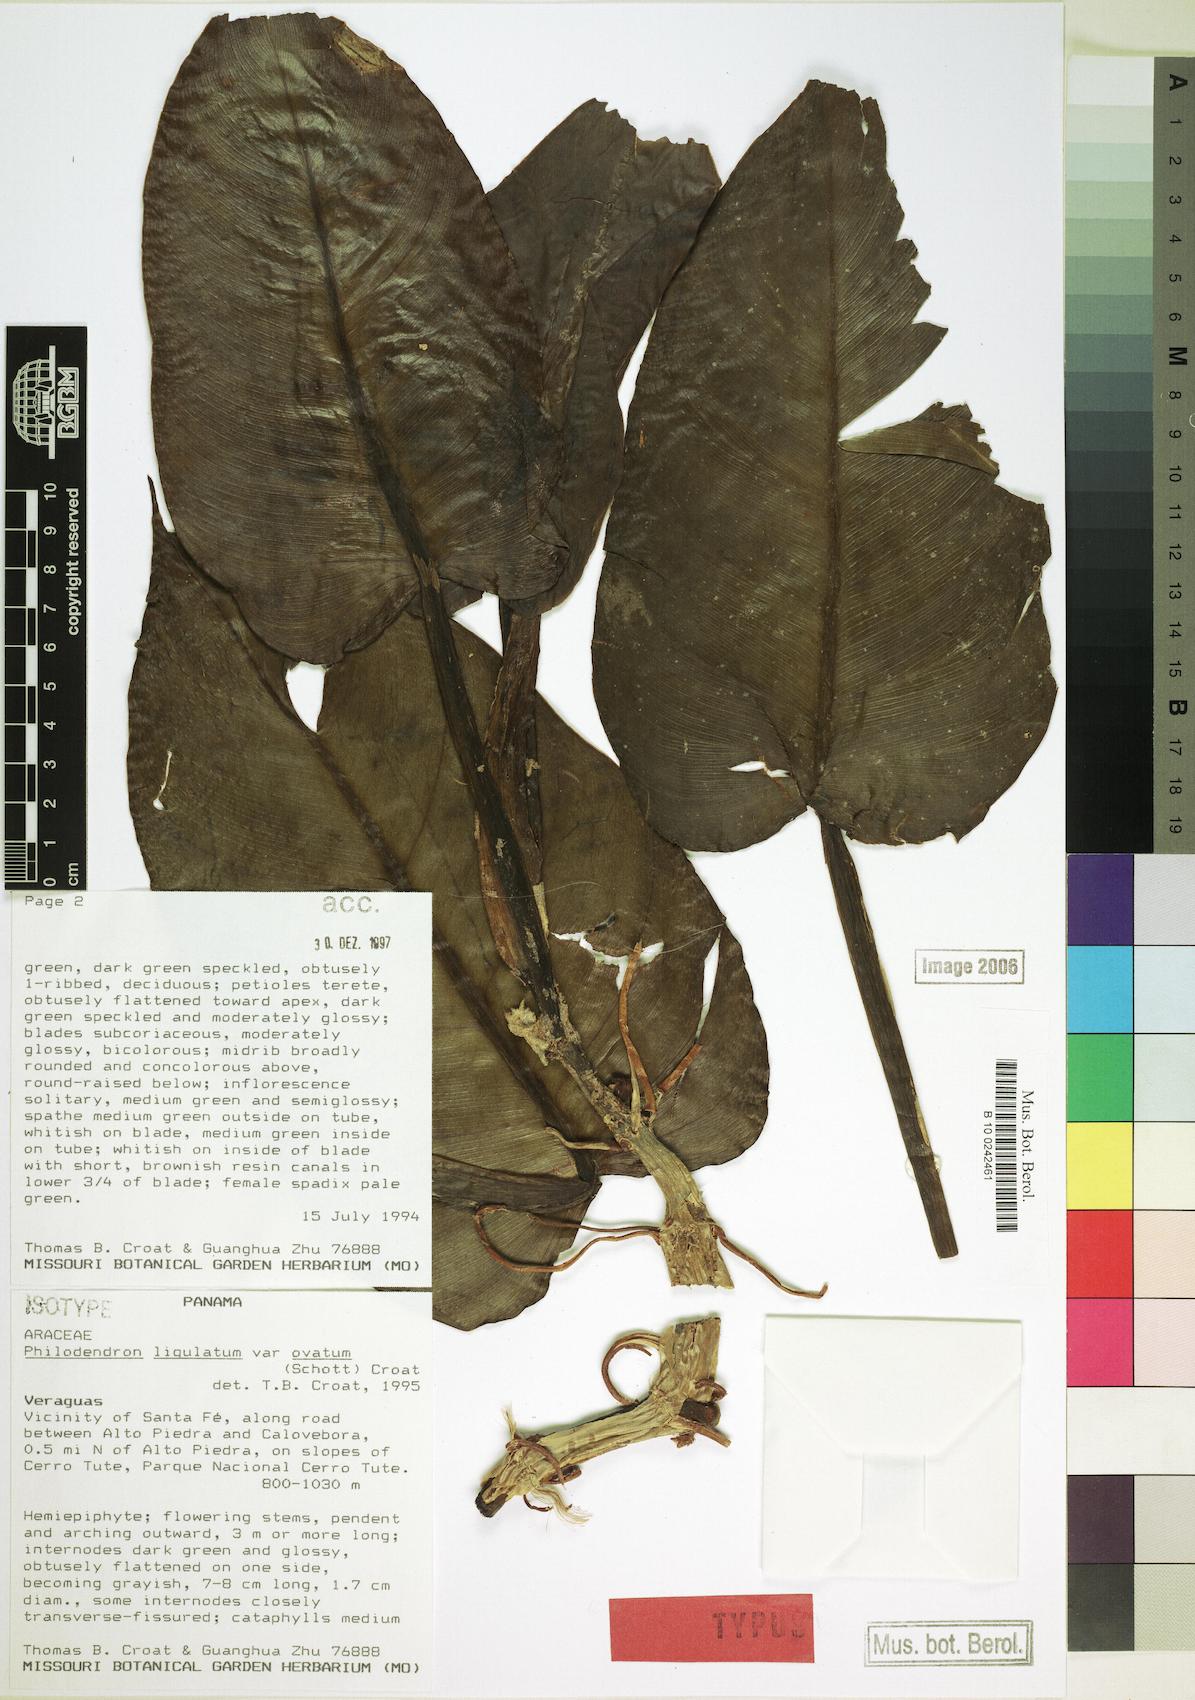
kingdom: Plantae
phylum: Tracheophyta
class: Liliopsida
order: Alismatales
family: Araceae
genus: Philodendron
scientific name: Philodendron ligulatum
